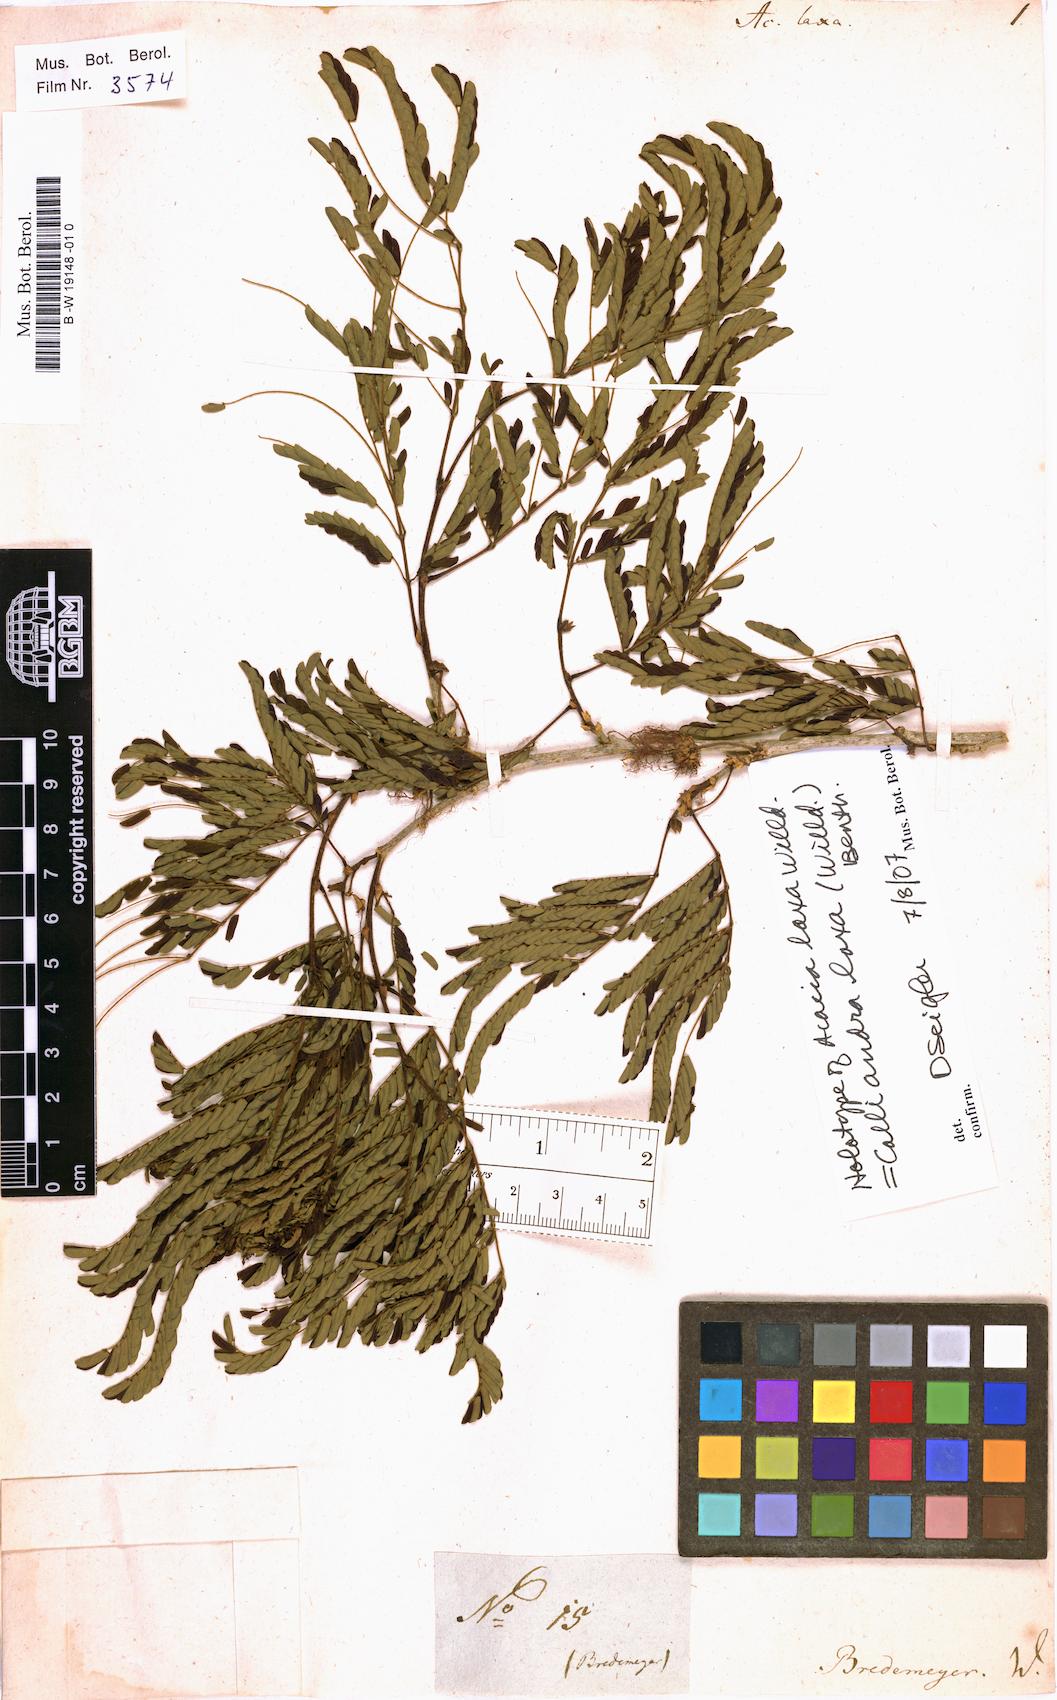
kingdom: Plantae
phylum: Tracheophyta
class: Magnoliopsida
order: Fabales
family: Fabaceae
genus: Calliandra
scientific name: Calliandra laxa
